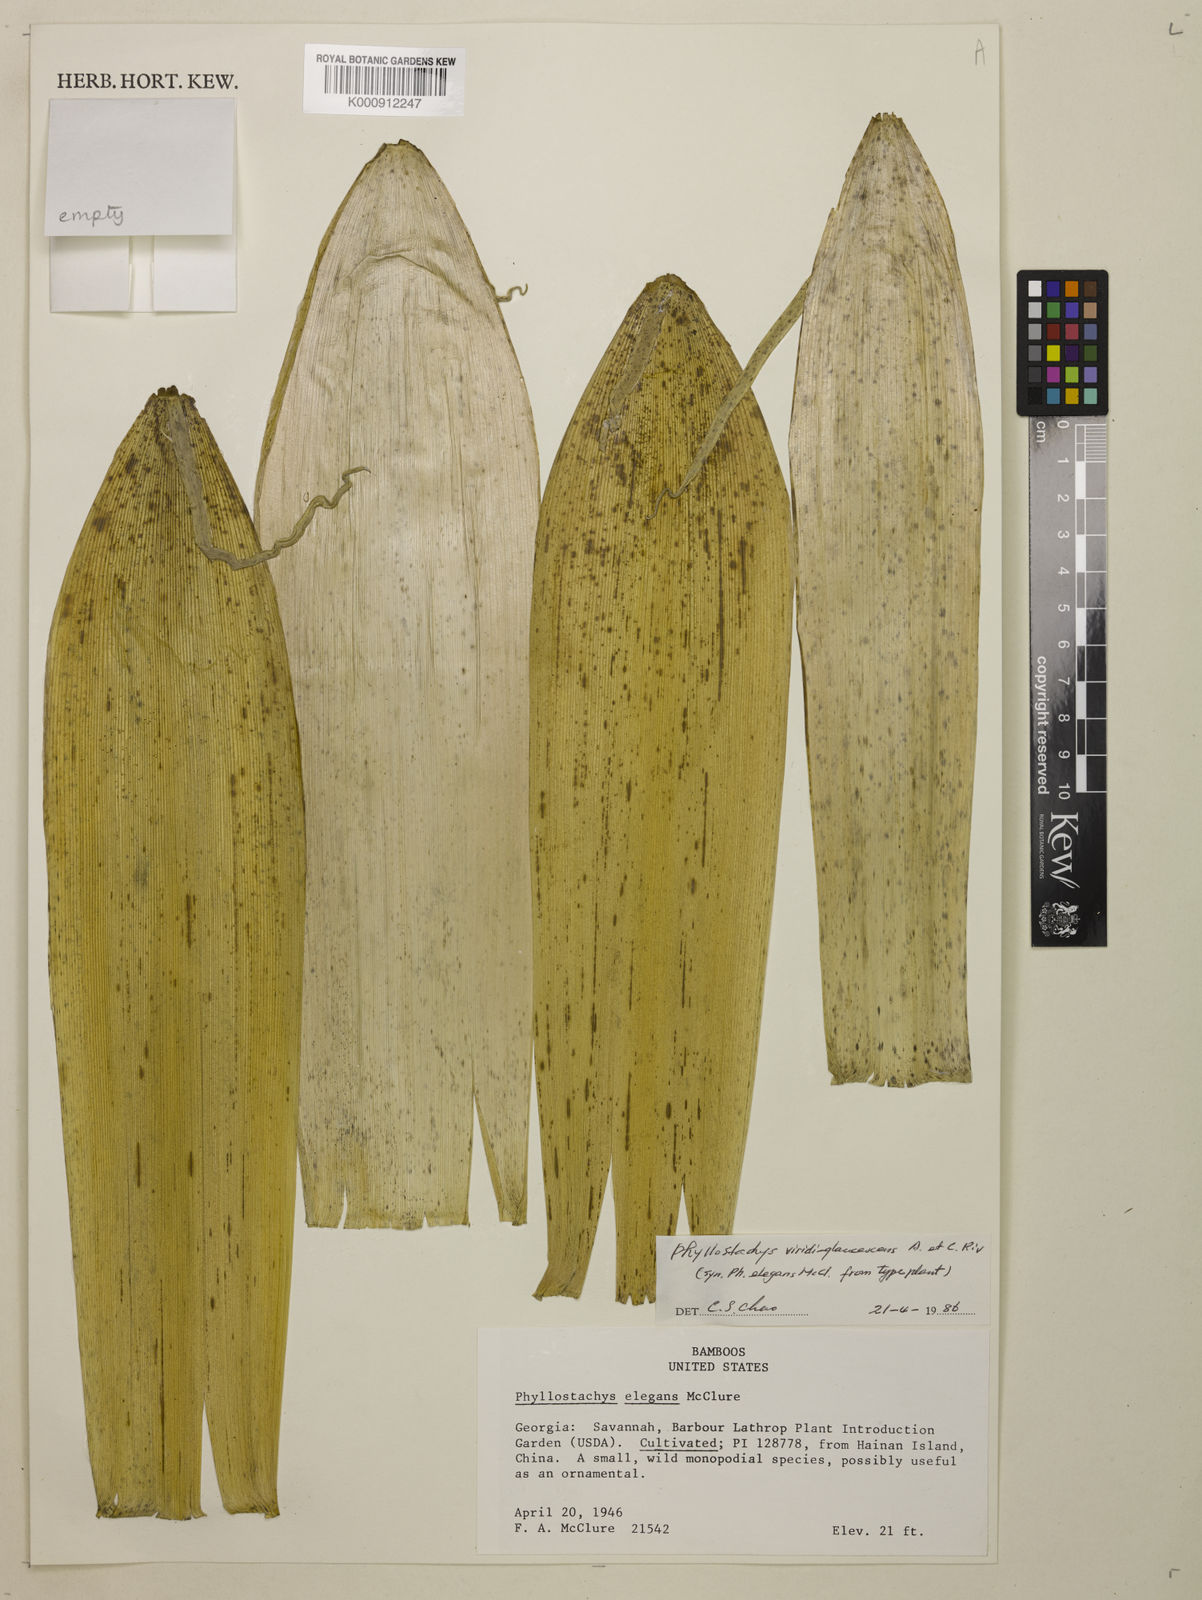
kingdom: Plantae
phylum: Tracheophyta
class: Liliopsida
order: Poales
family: Poaceae
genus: Phyllostachys
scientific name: Phyllostachys
